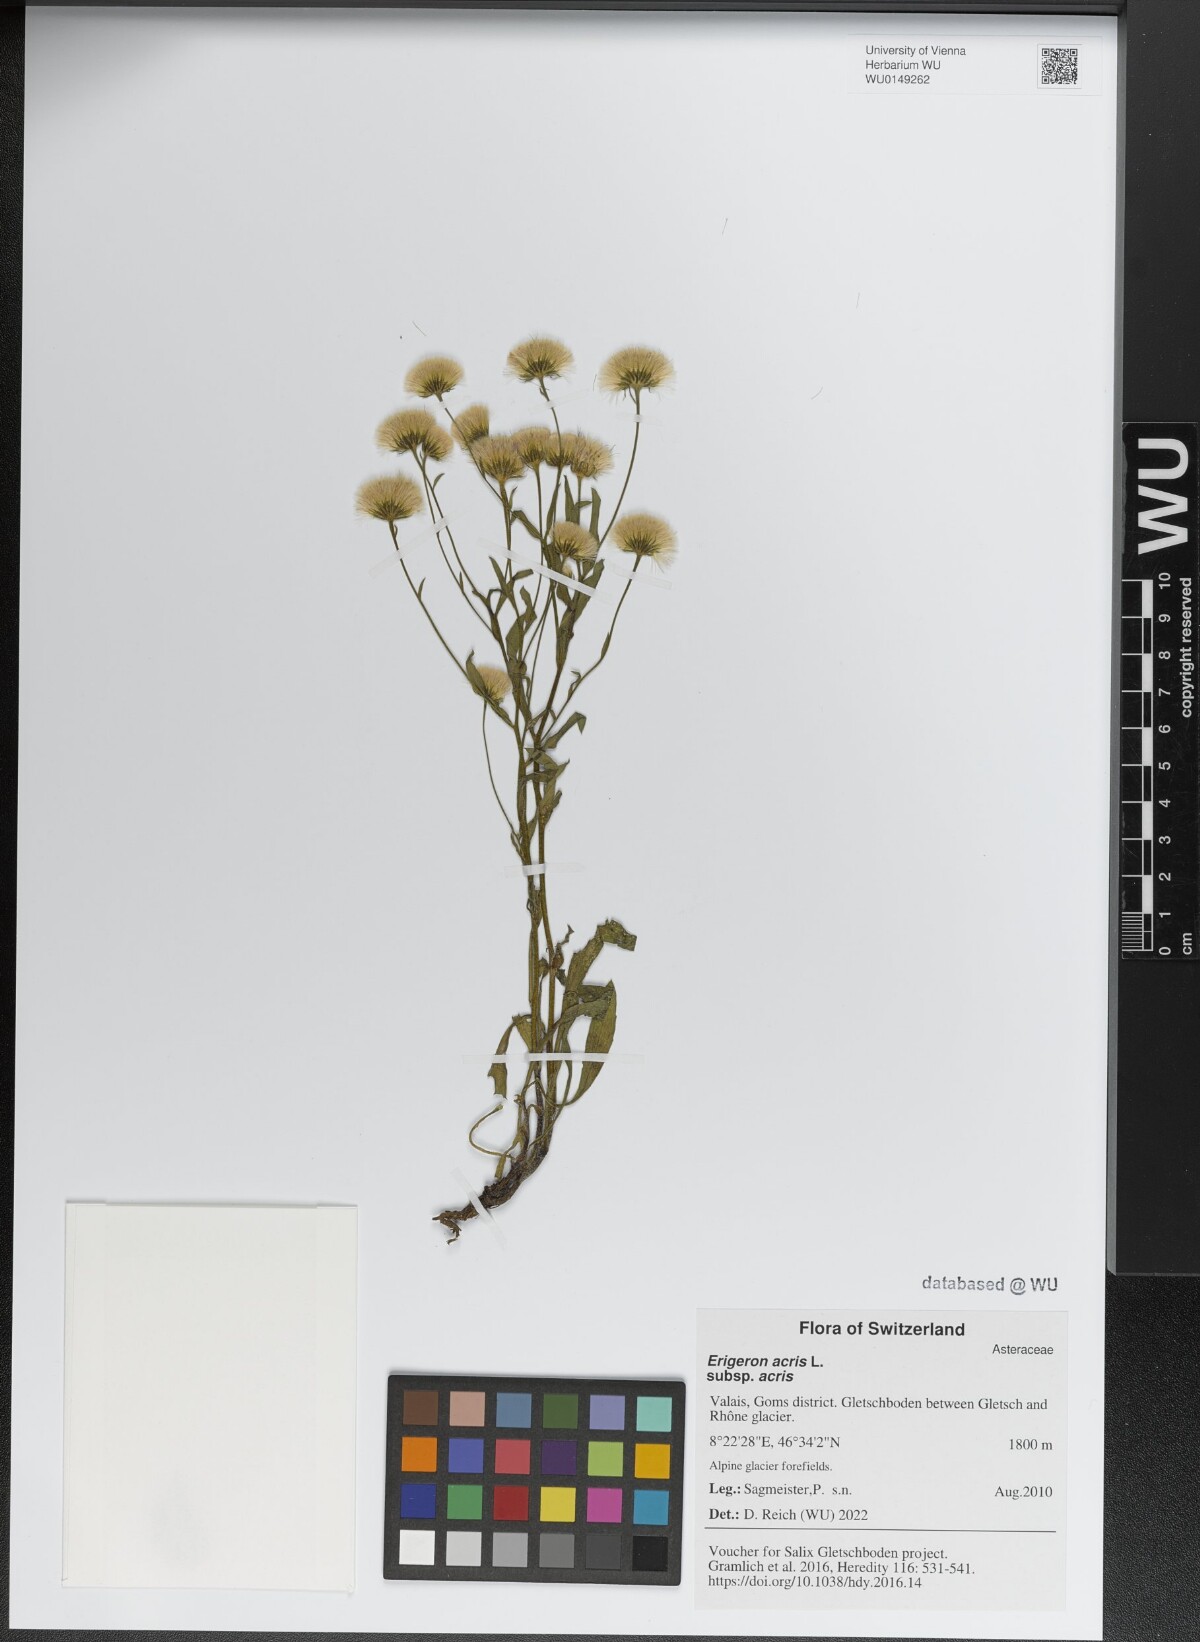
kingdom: Plantae
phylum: Tracheophyta
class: Magnoliopsida
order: Asterales
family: Asteraceae
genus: Erigeron
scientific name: Erigeron acris
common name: Blue fleabane
